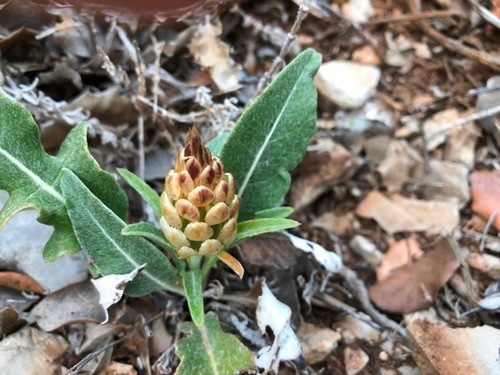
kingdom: Plantae
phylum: Tracheophyta
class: Magnoliopsida
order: Asterales
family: Asteraceae
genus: Leuzea
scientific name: Leuzea conifera
